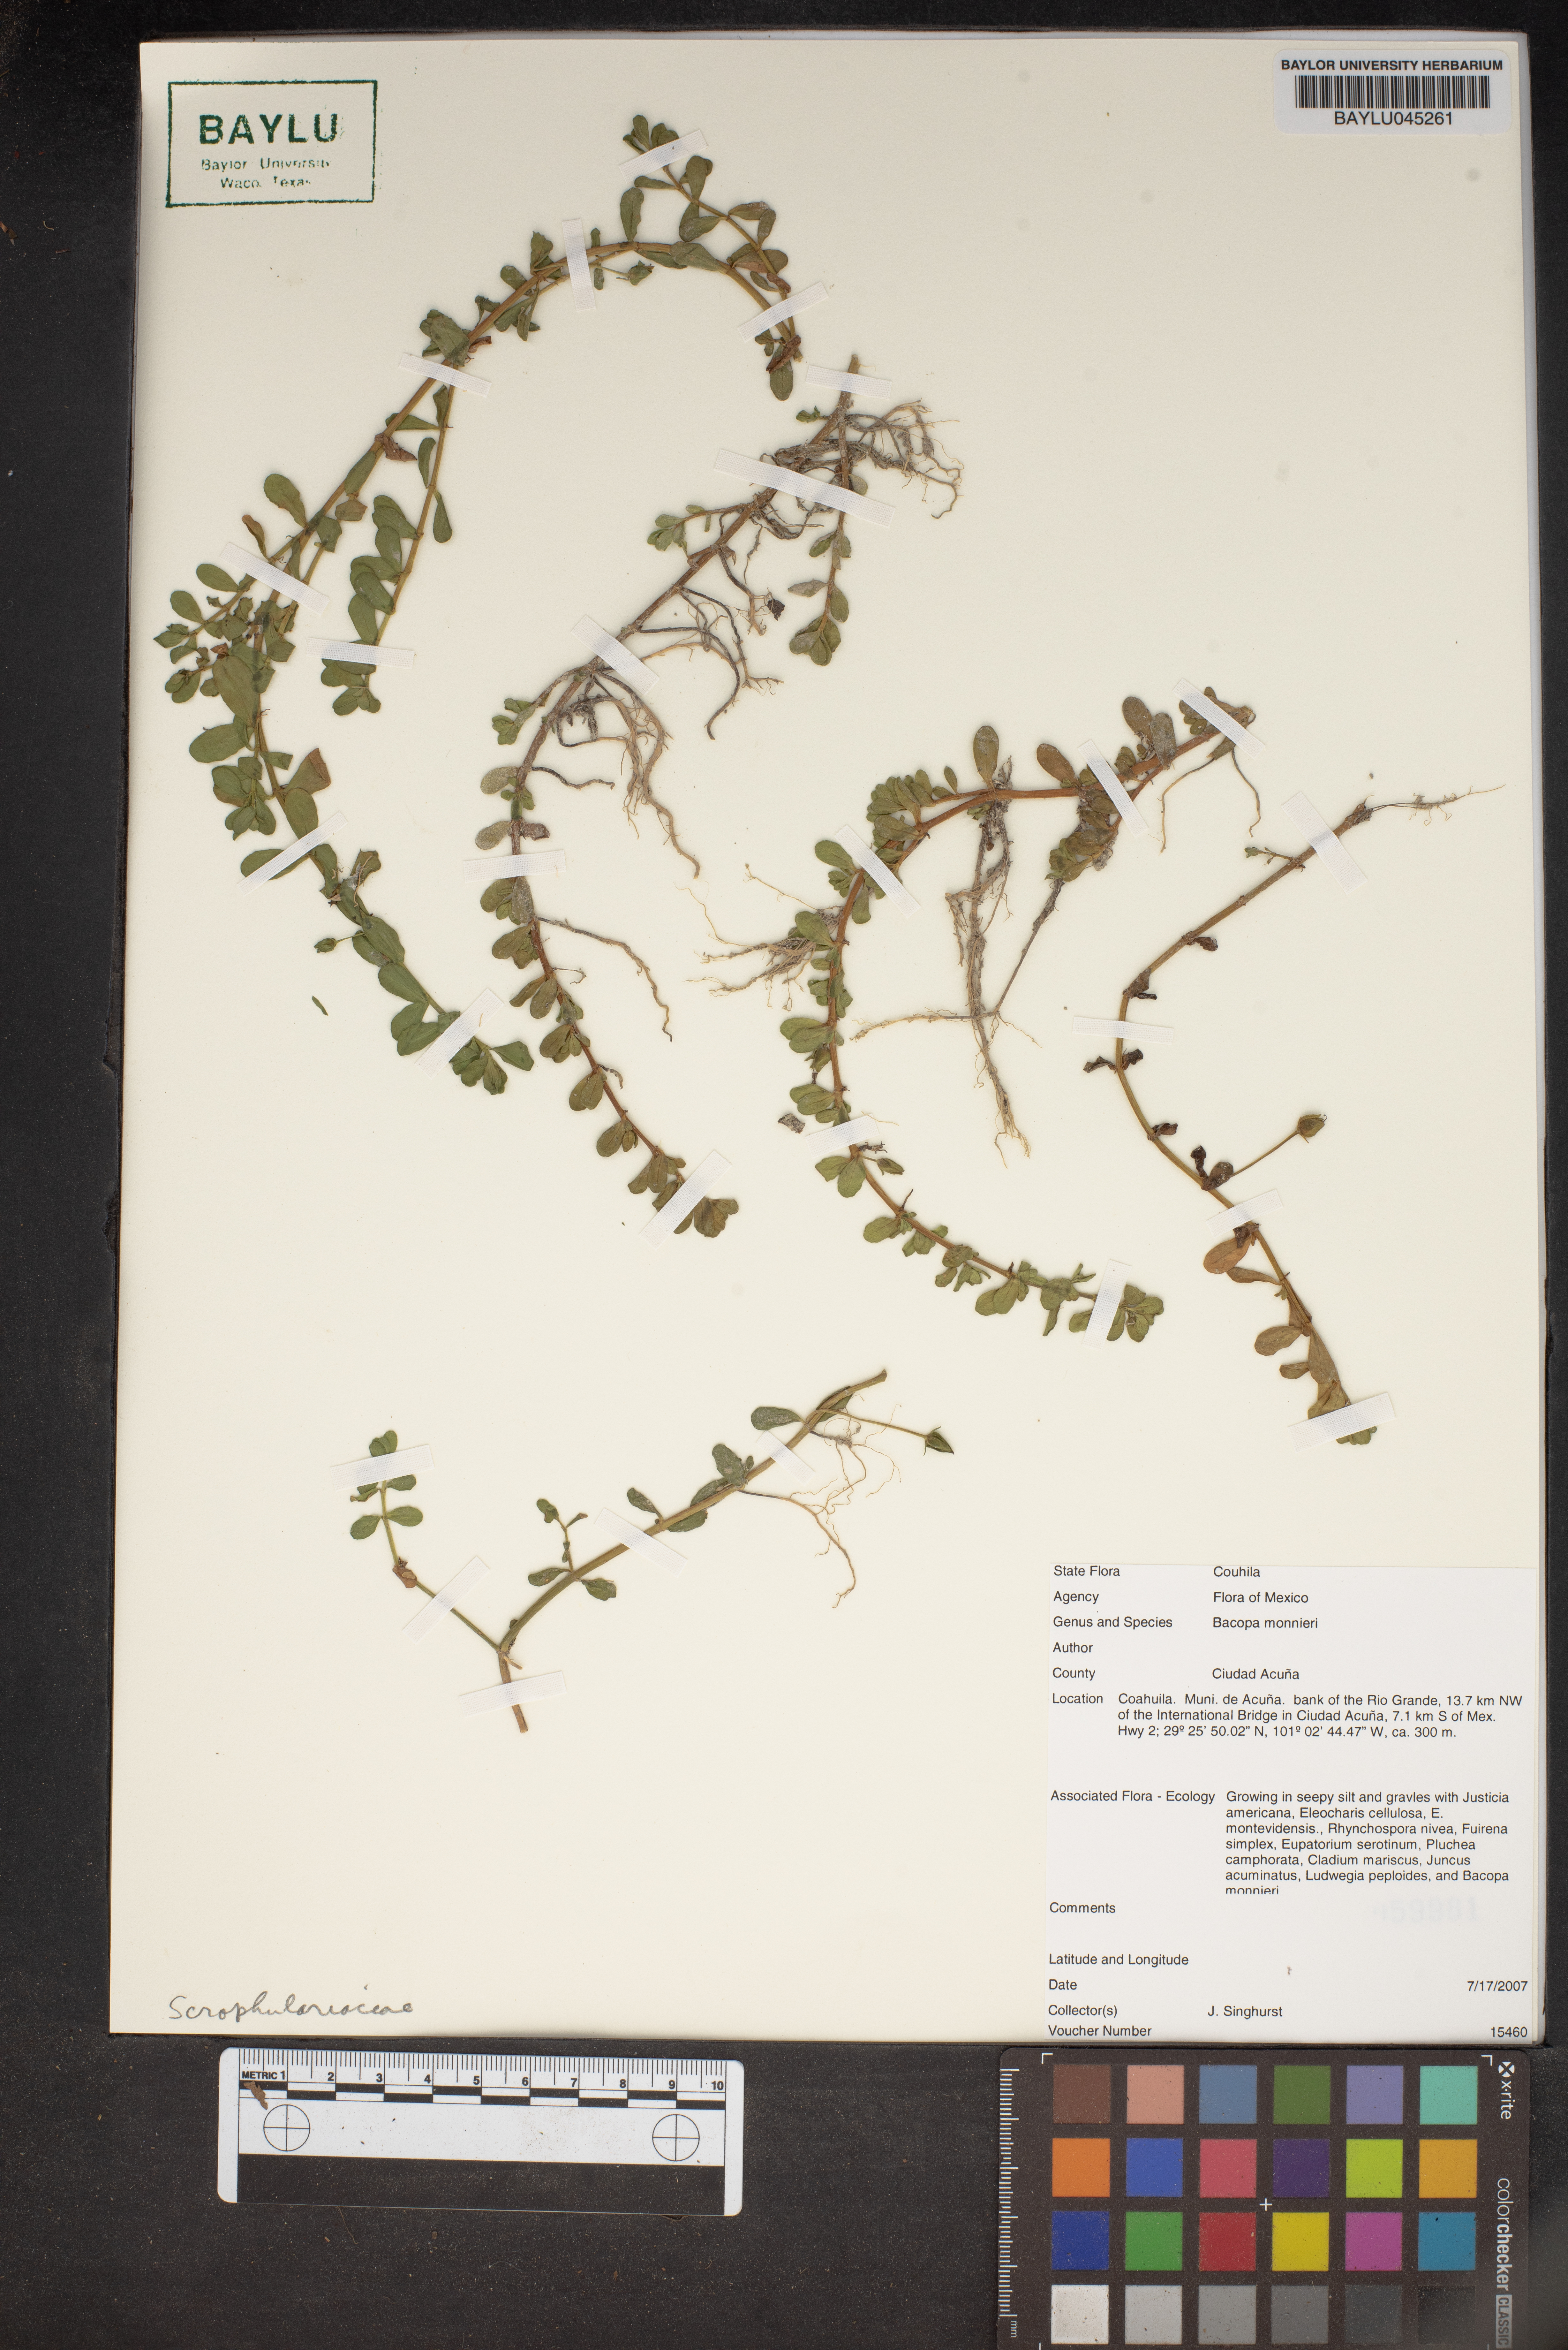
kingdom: Plantae
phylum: Tracheophyta
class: Magnoliopsida
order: Lamiales
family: Plantaginaceae
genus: Bacopa
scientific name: Bacopa monnieri
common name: Indian-pennywort
